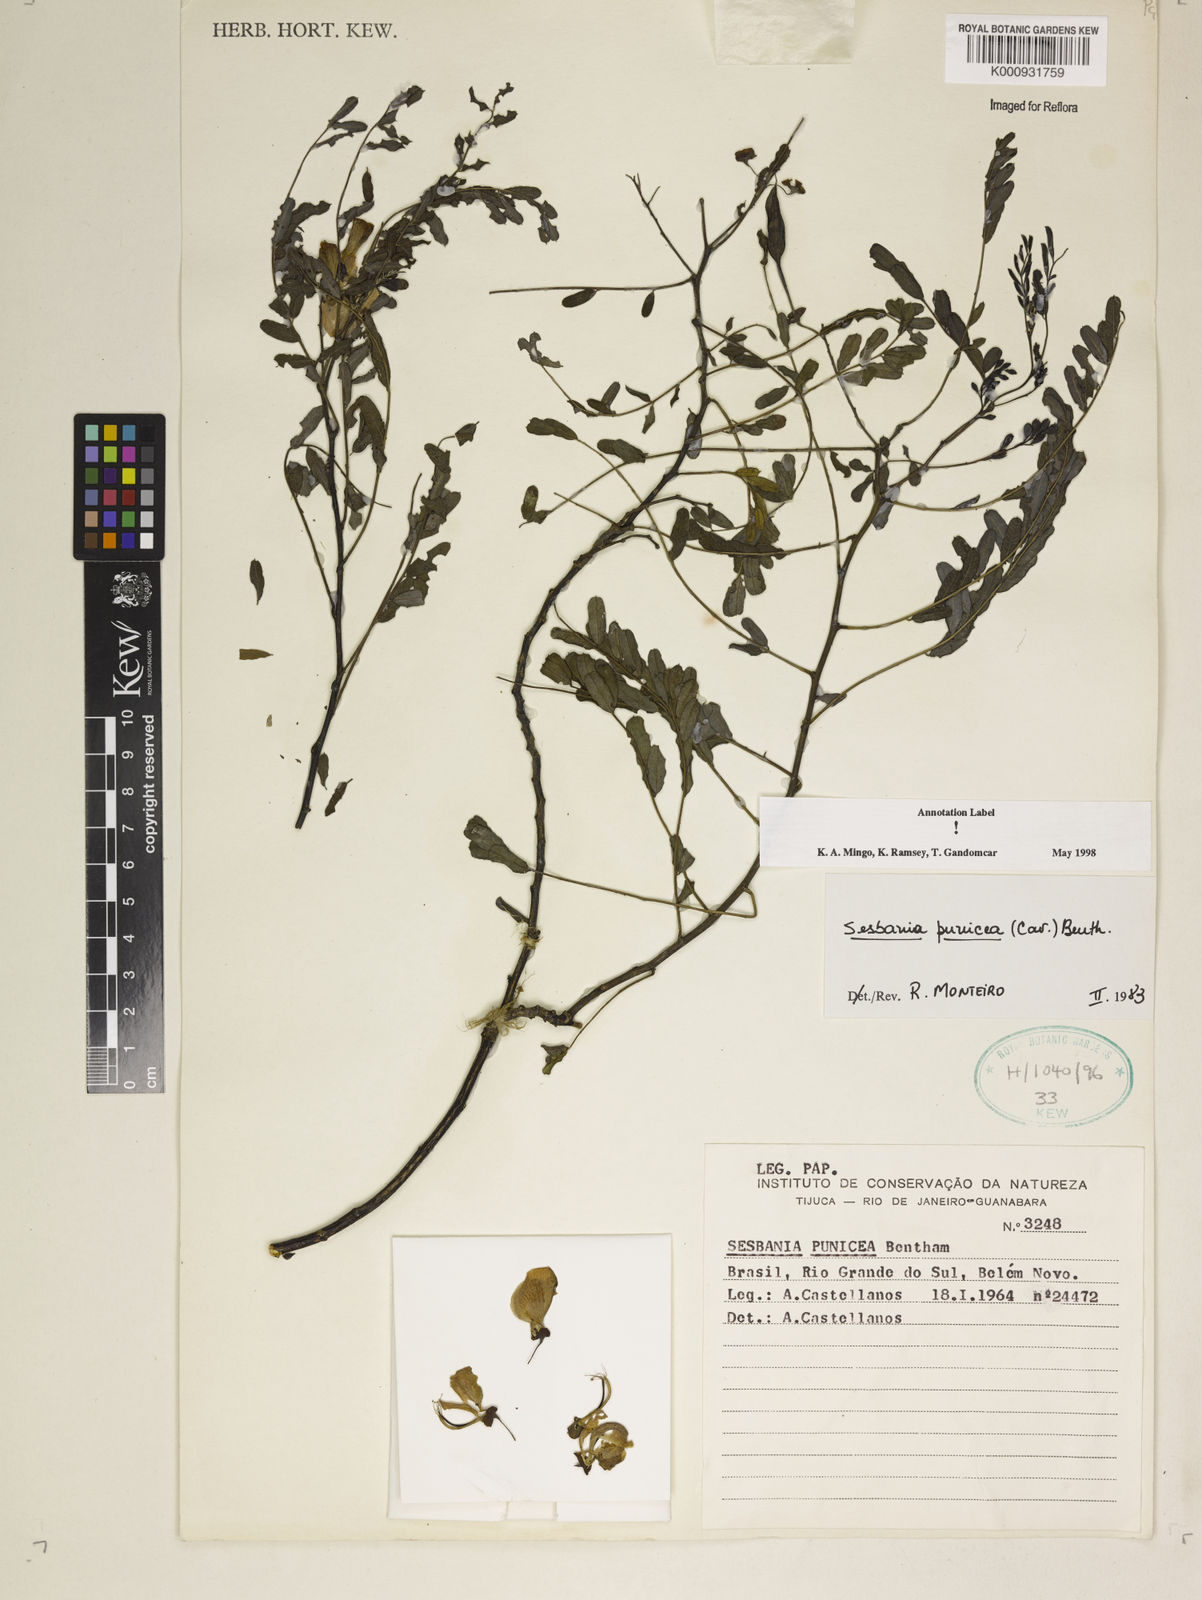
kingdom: Plantae
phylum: Tracheophyta
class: Magnoliopsida
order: Fabales
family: Fabaceae
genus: Sesbania
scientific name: Sesbania punicea
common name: Rattlebox
